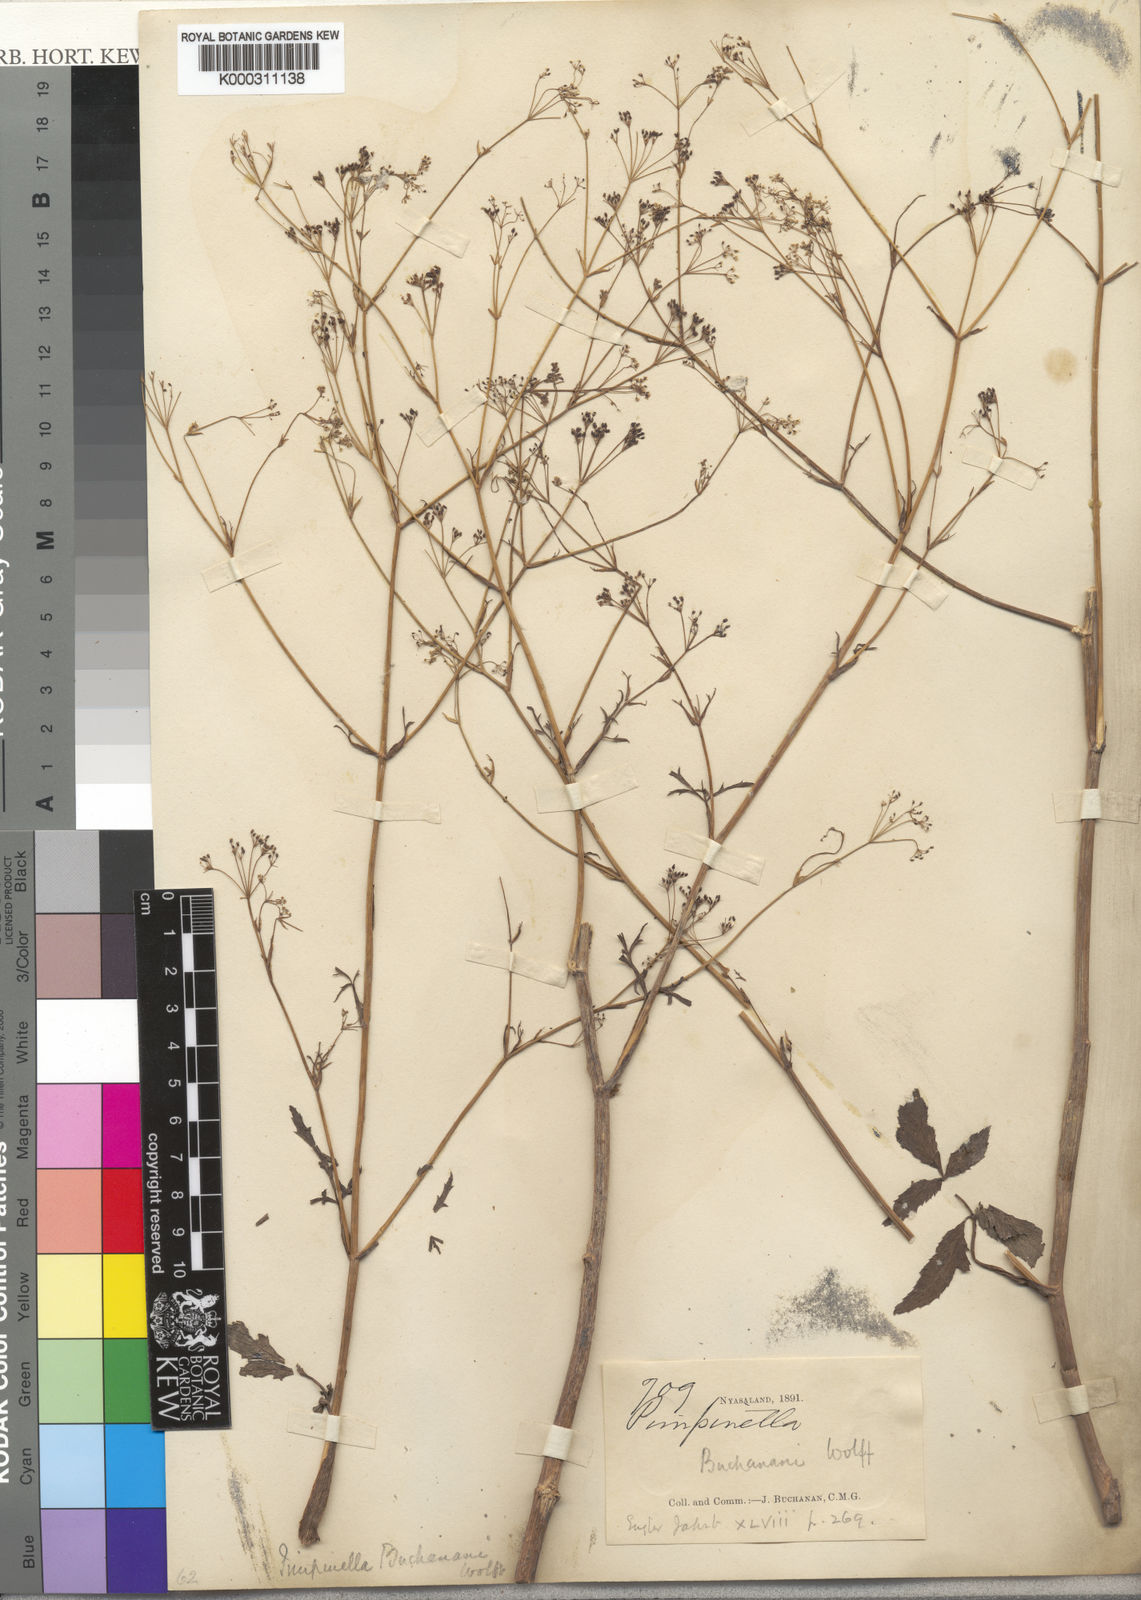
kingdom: Plantae
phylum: Tracheophyta
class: Magnoliopsida
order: Apiales
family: Apiaceae
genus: Pimpinella
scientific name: Pimpinella buchananii
